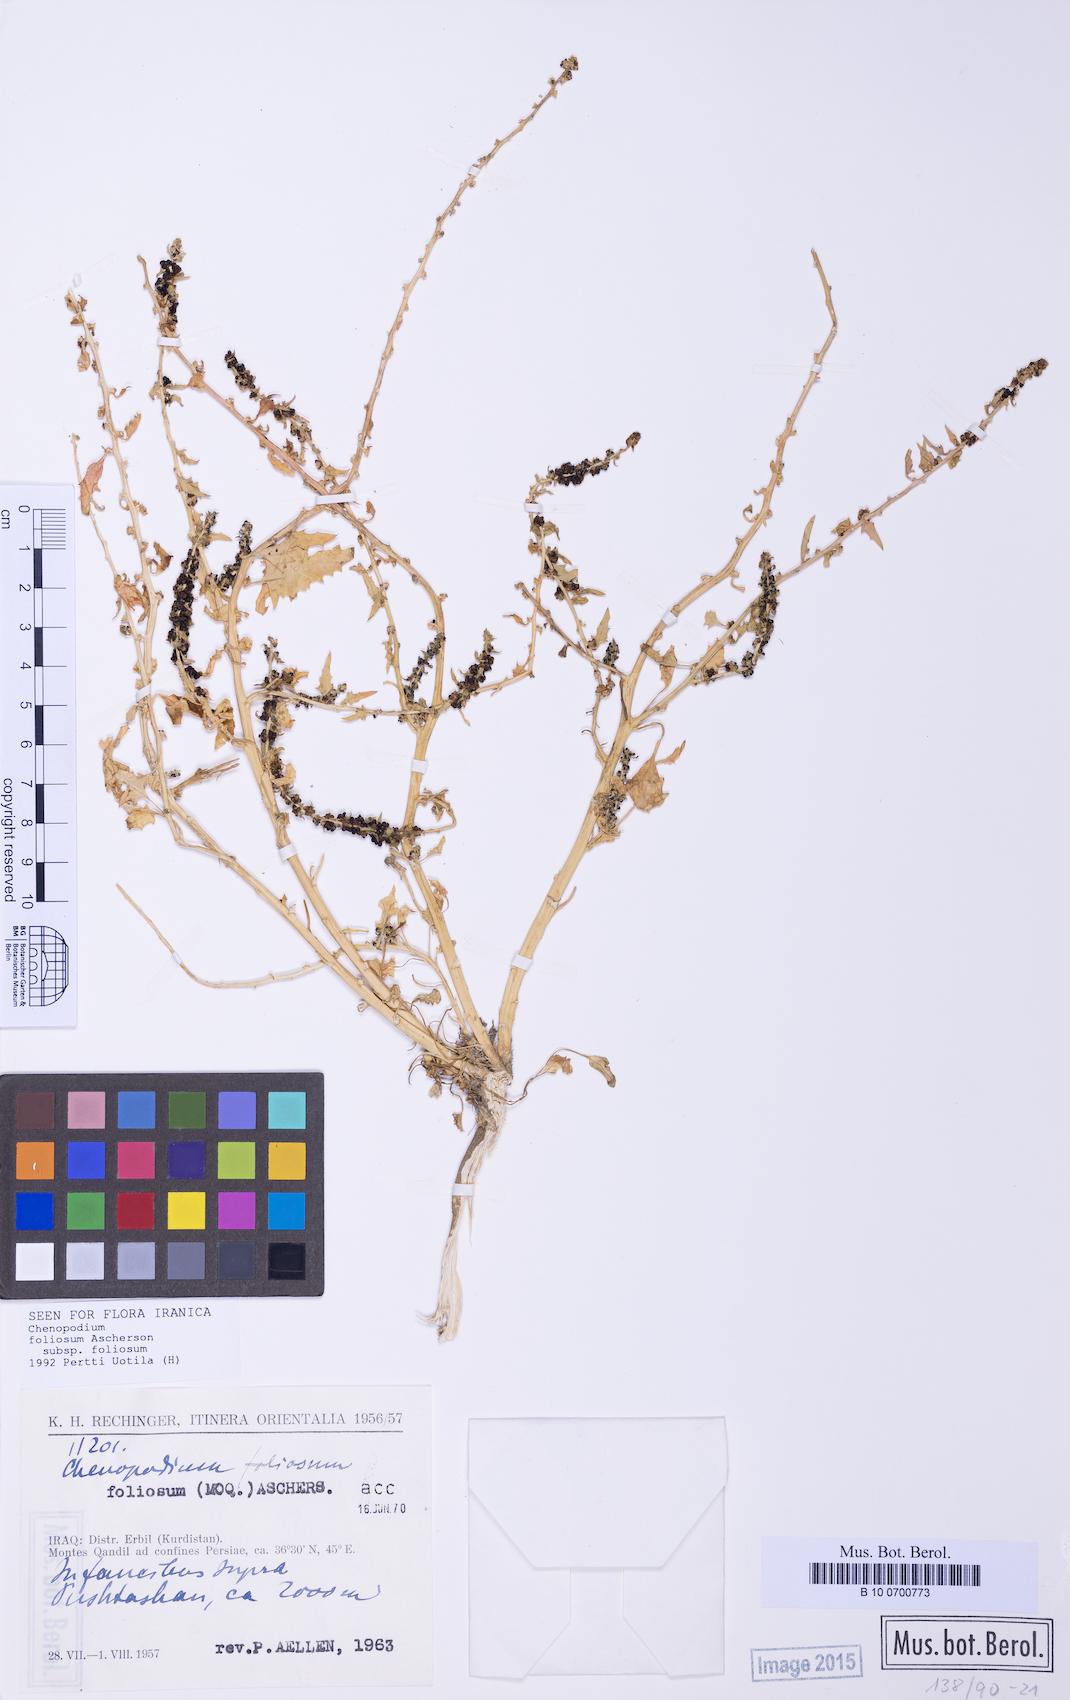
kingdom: Plantae
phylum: Tracheophyta
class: Magnoliopsida
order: Caryophyllales
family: Amaranthaceae
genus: Blitum
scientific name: Blitum virgatum
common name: Strawberry goosefoot
